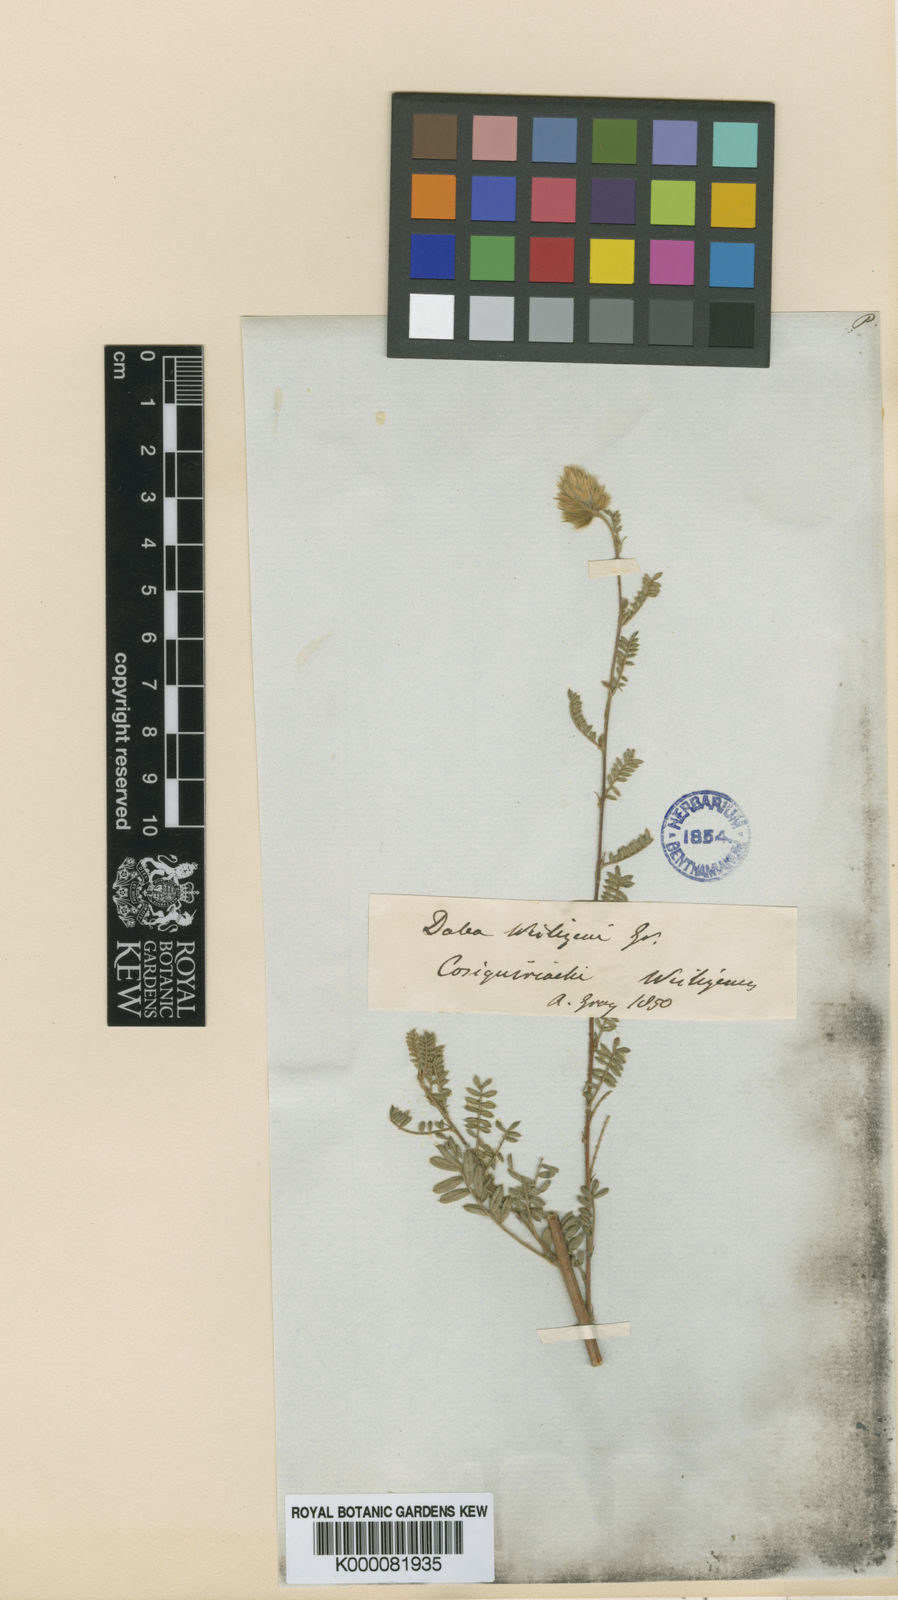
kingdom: Plantae
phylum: Tracheophyta
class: Magnoliopsida
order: Fabales
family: Fabaceae
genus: Dalea
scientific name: Dalea versicolor
